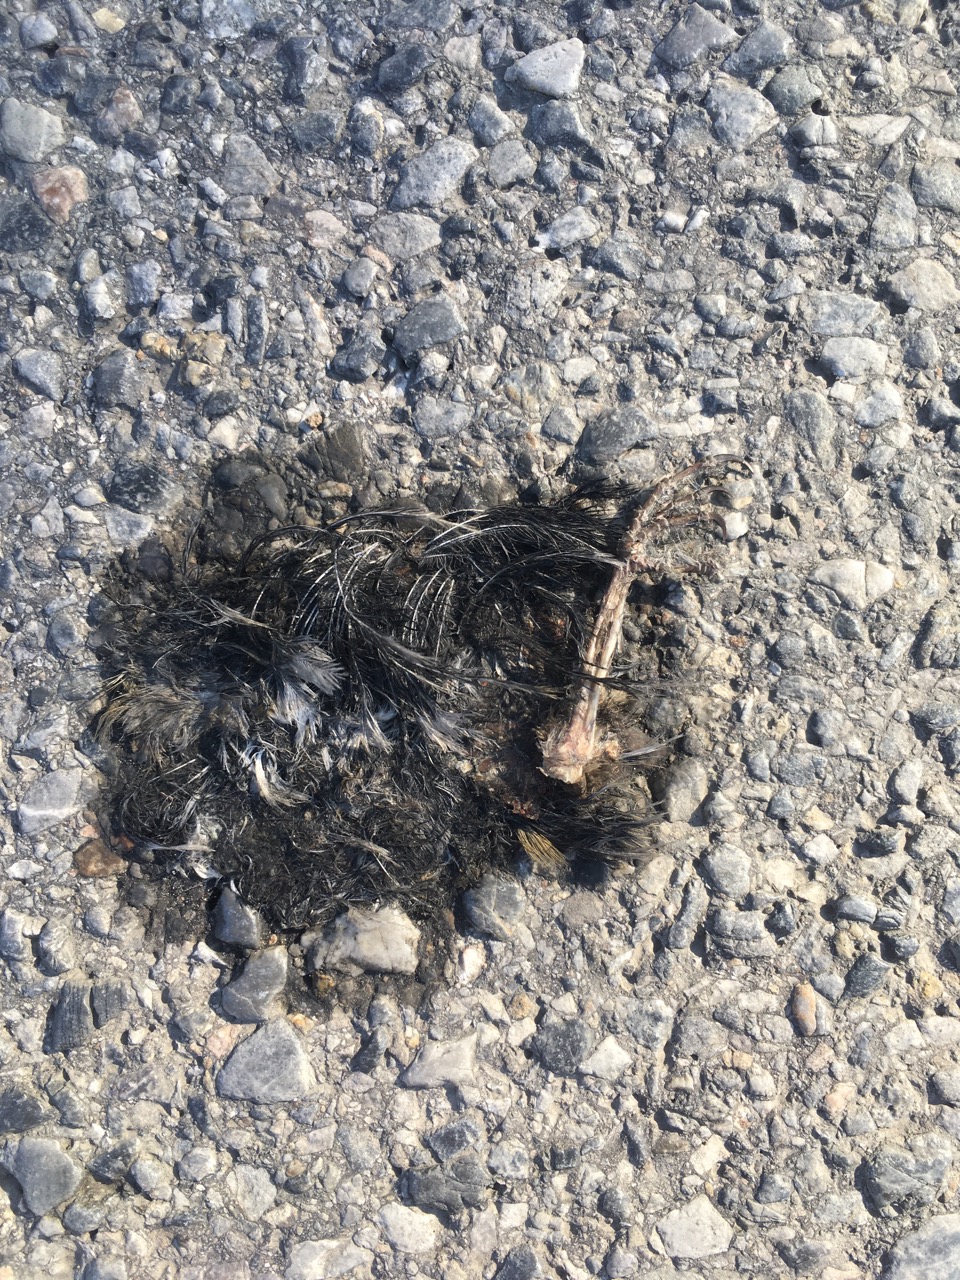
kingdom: Animalia
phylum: Chordata
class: Aves
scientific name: Aves
